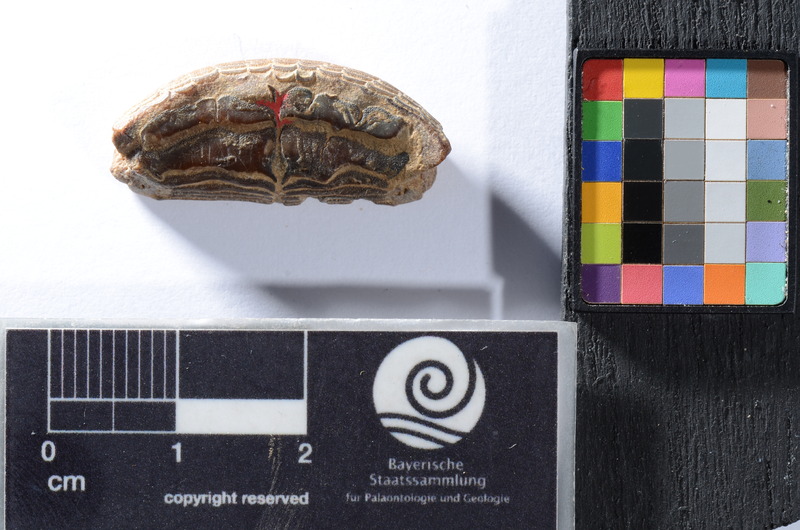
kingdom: Animalia
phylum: Chordata
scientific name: Chordata
